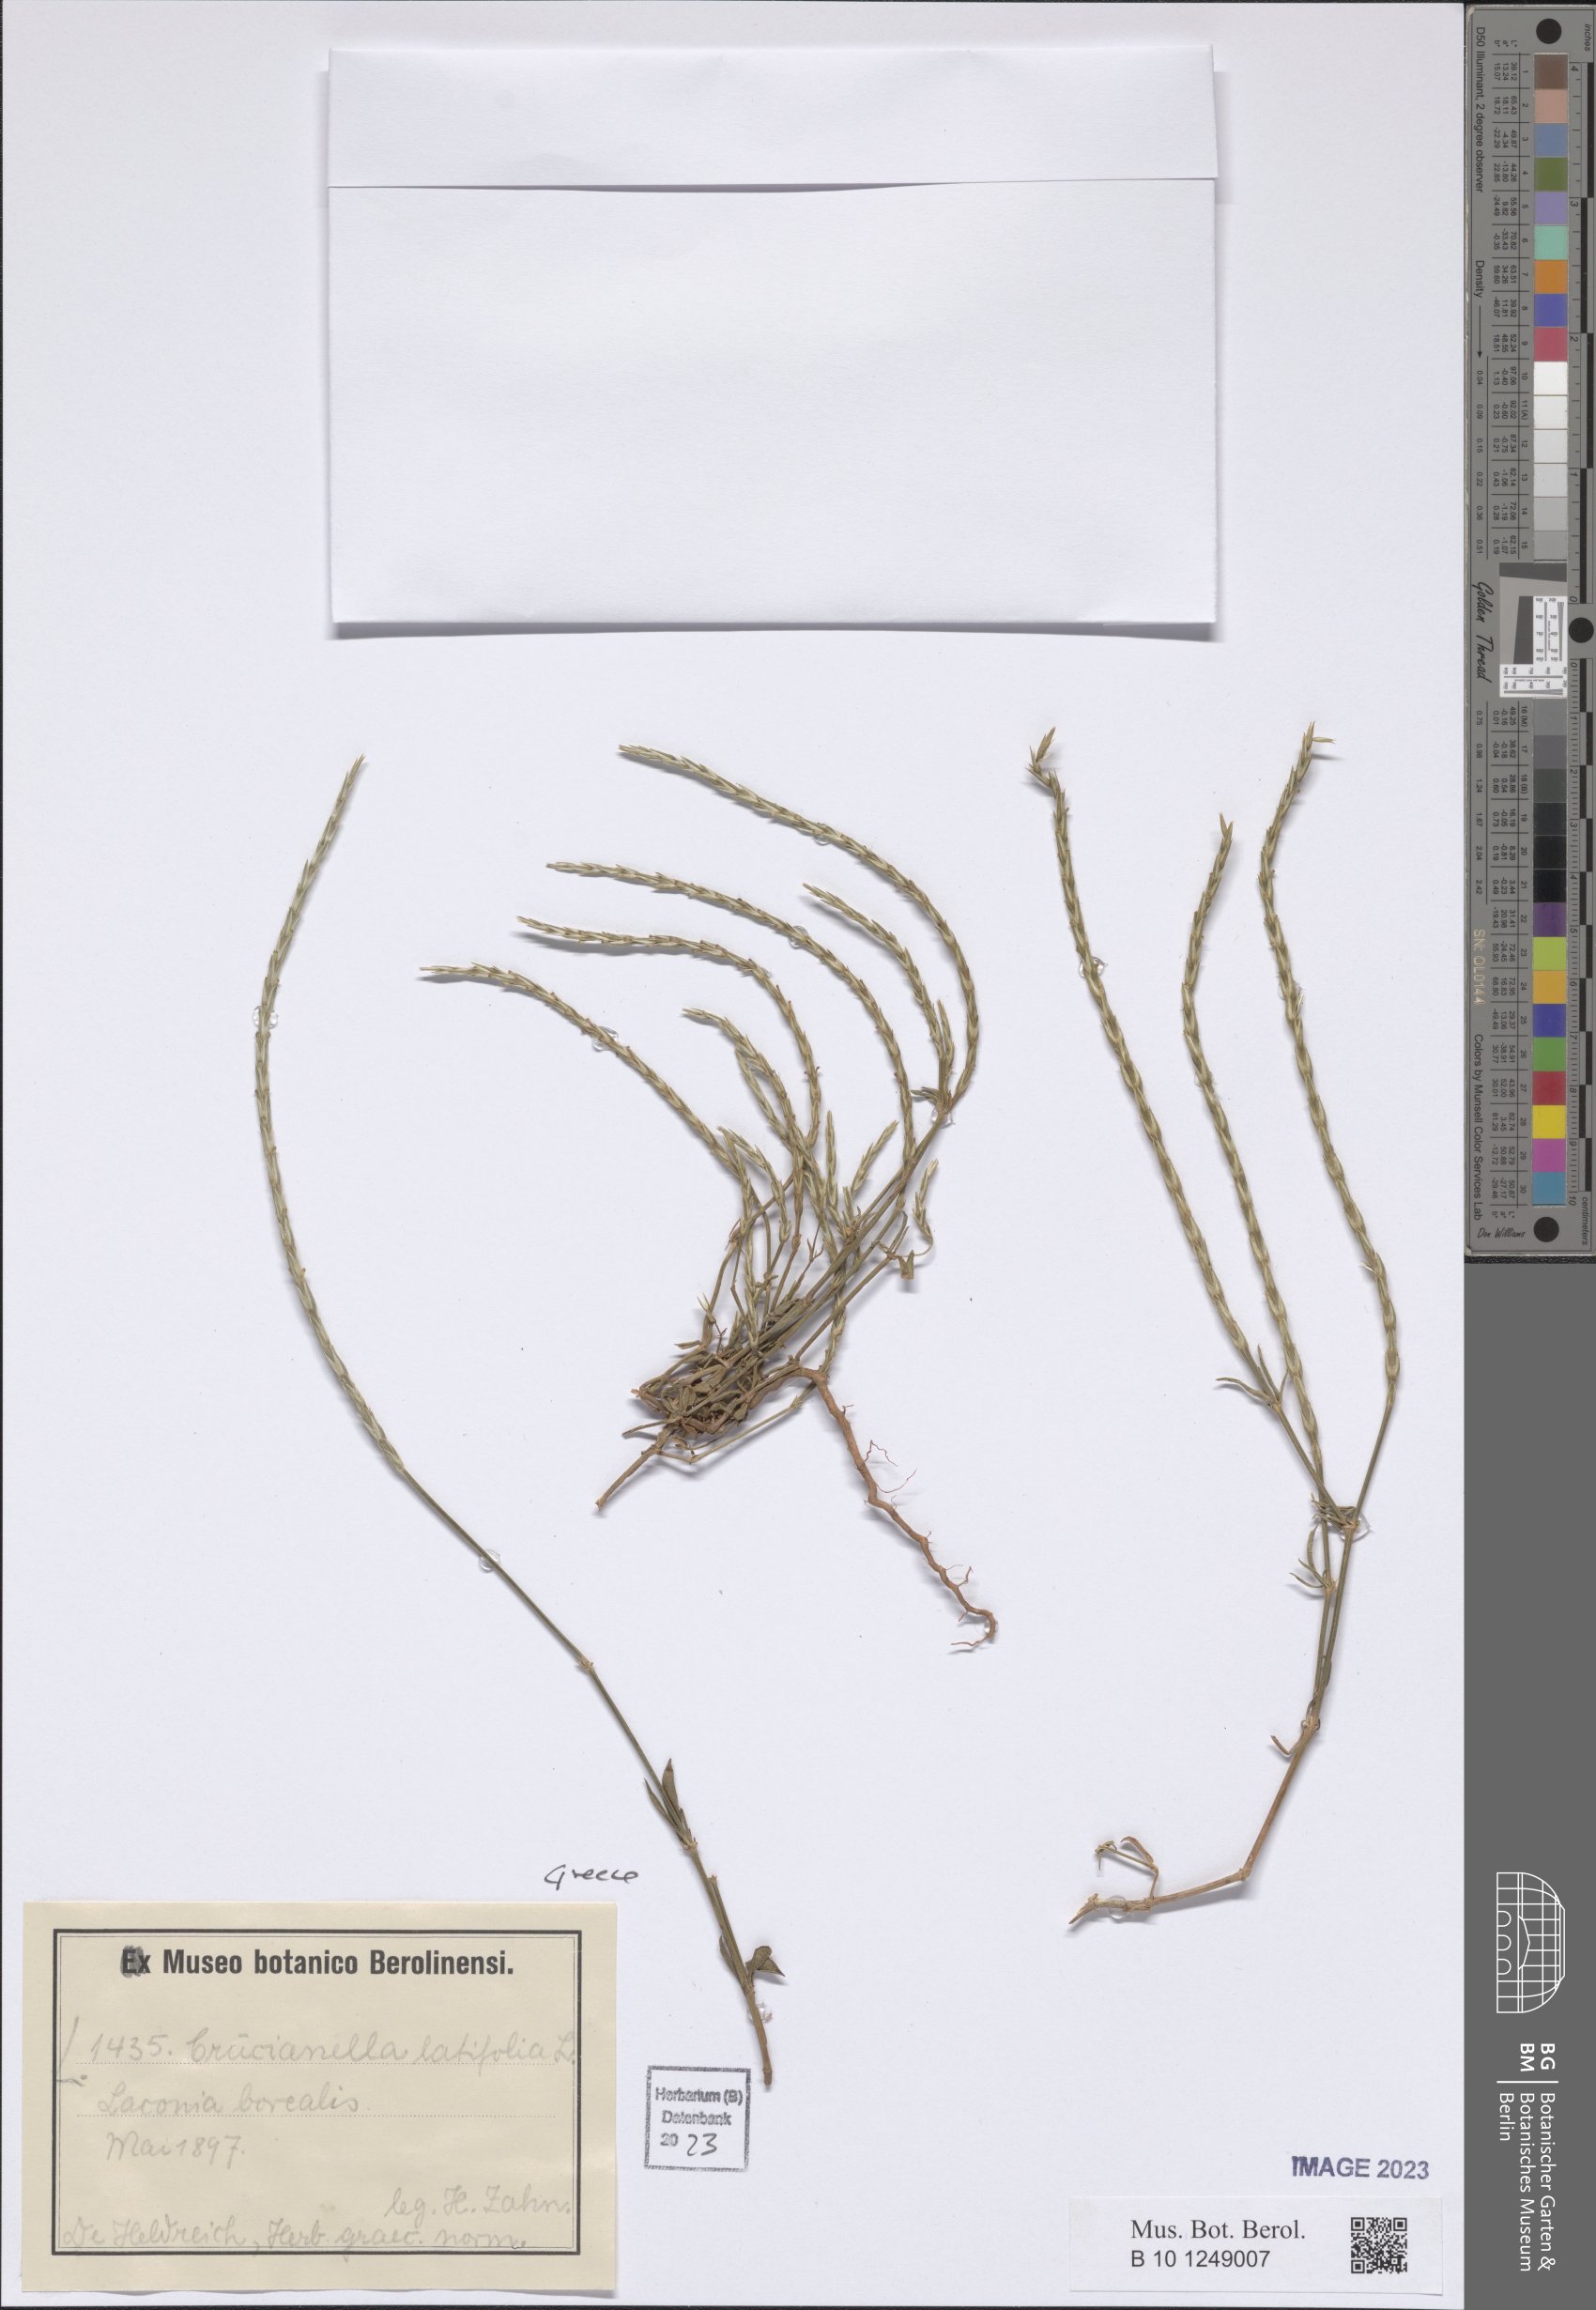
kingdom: Plantae
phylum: Tracheophyta
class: Magnoliopsida
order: Gentianales
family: Rubiaceae
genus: Crucianella
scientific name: Crucianella latifolia
